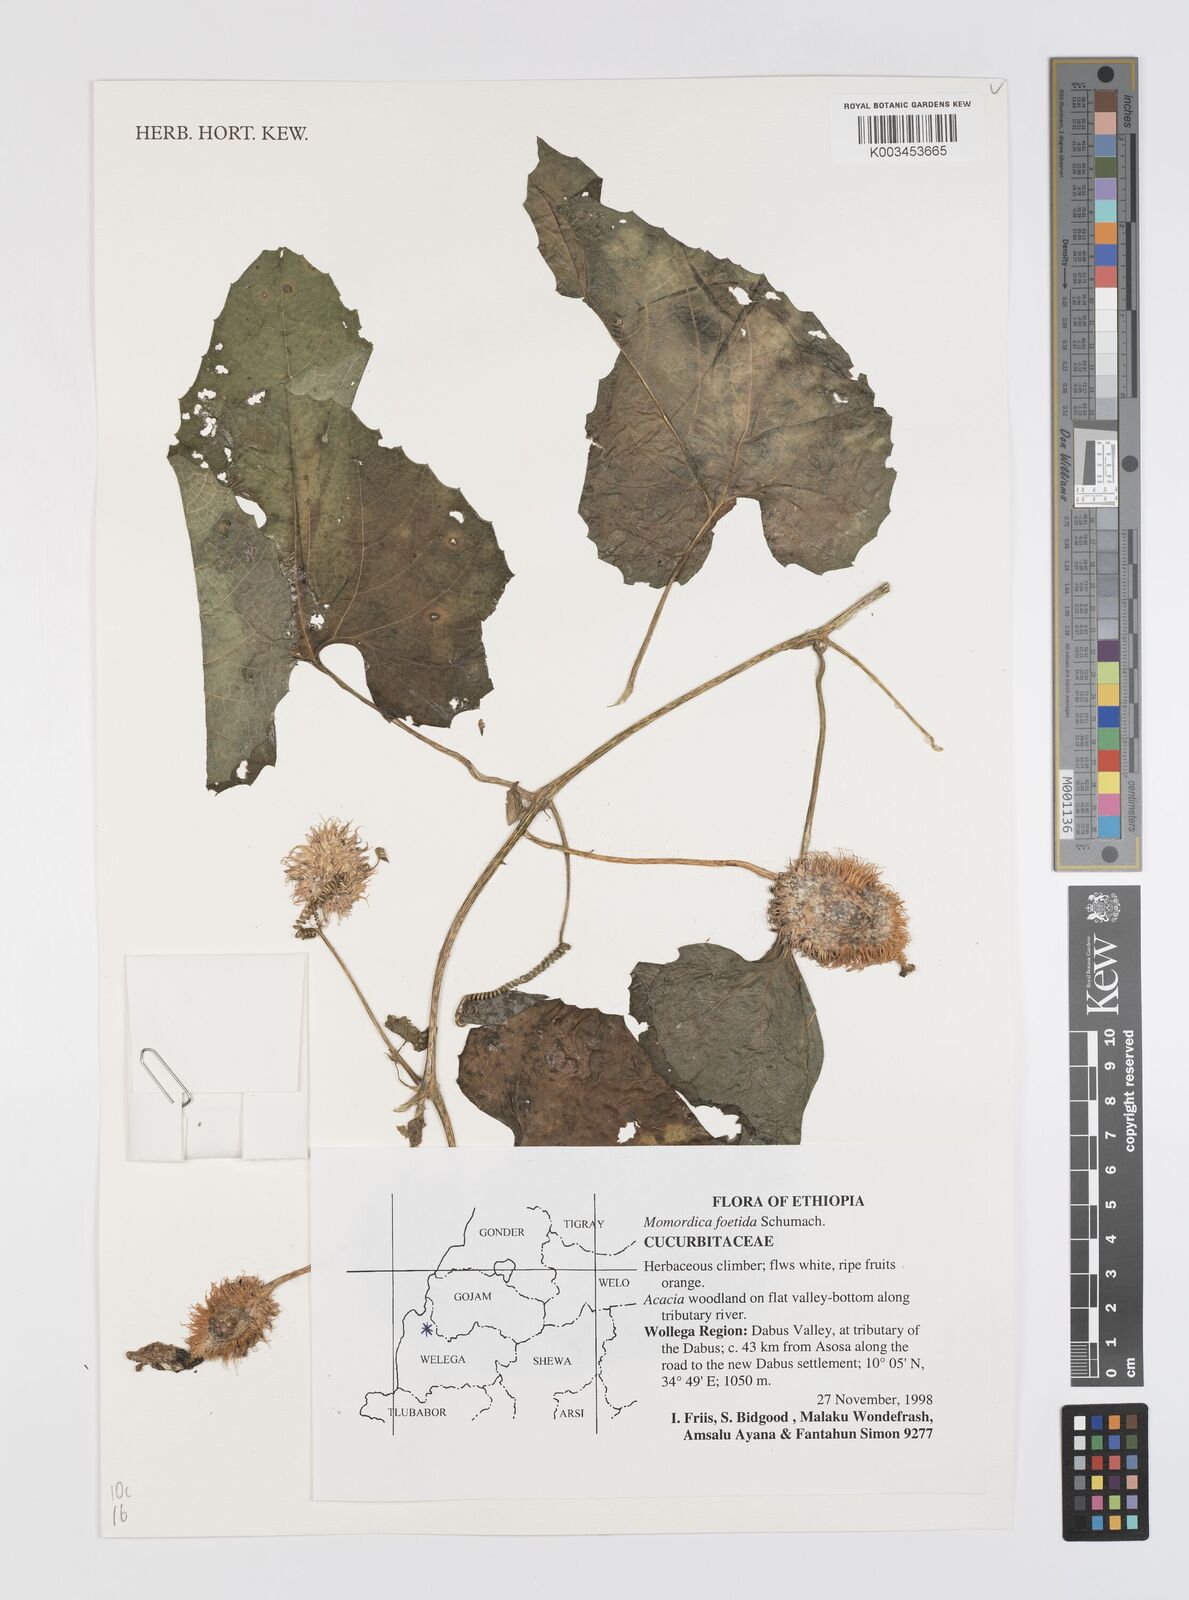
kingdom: Plantae
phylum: Tracheophyta
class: Magnoliopsida
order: Cucurbitales
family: Cucurbitaceae
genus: Momordica
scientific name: Momordica foetida
